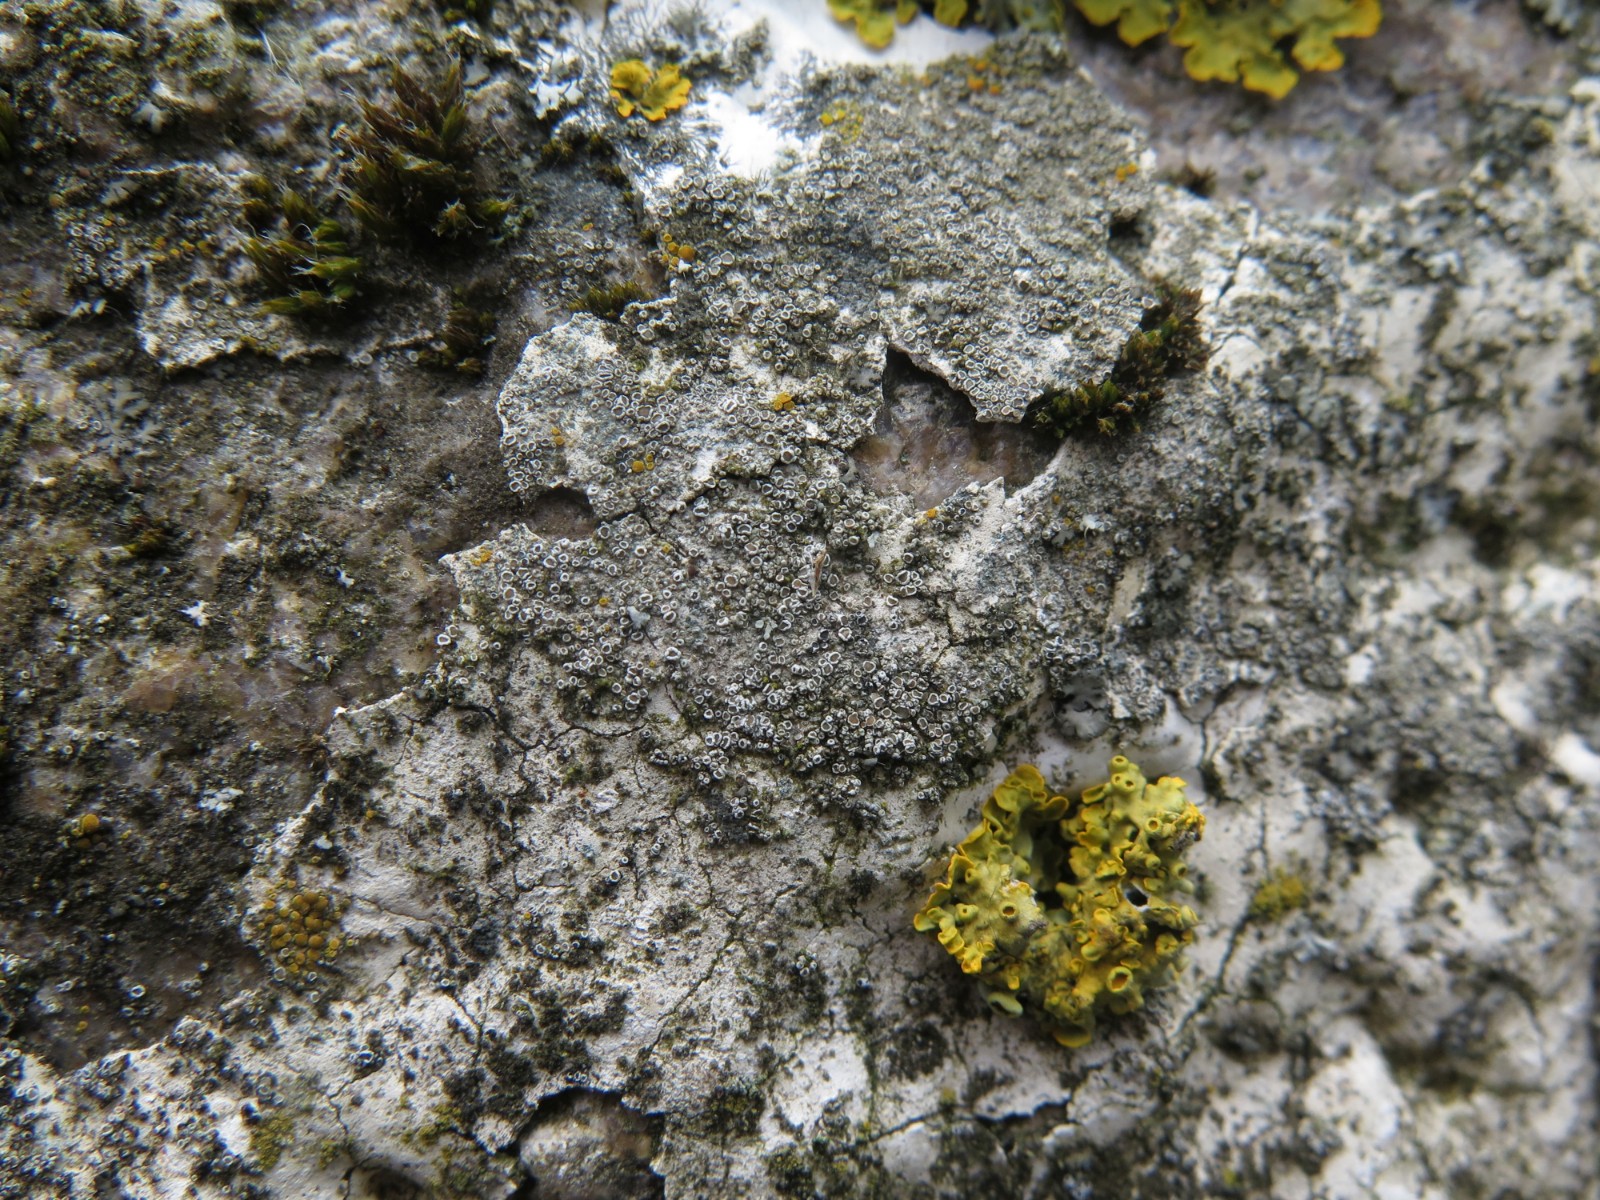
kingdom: Fungi
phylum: Ascomycota
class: Lecanoromycetes
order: Lecanorales
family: Lecanoraceae
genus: Polyozosia
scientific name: Polyozosia dispersa
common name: spredt kantskivelav
